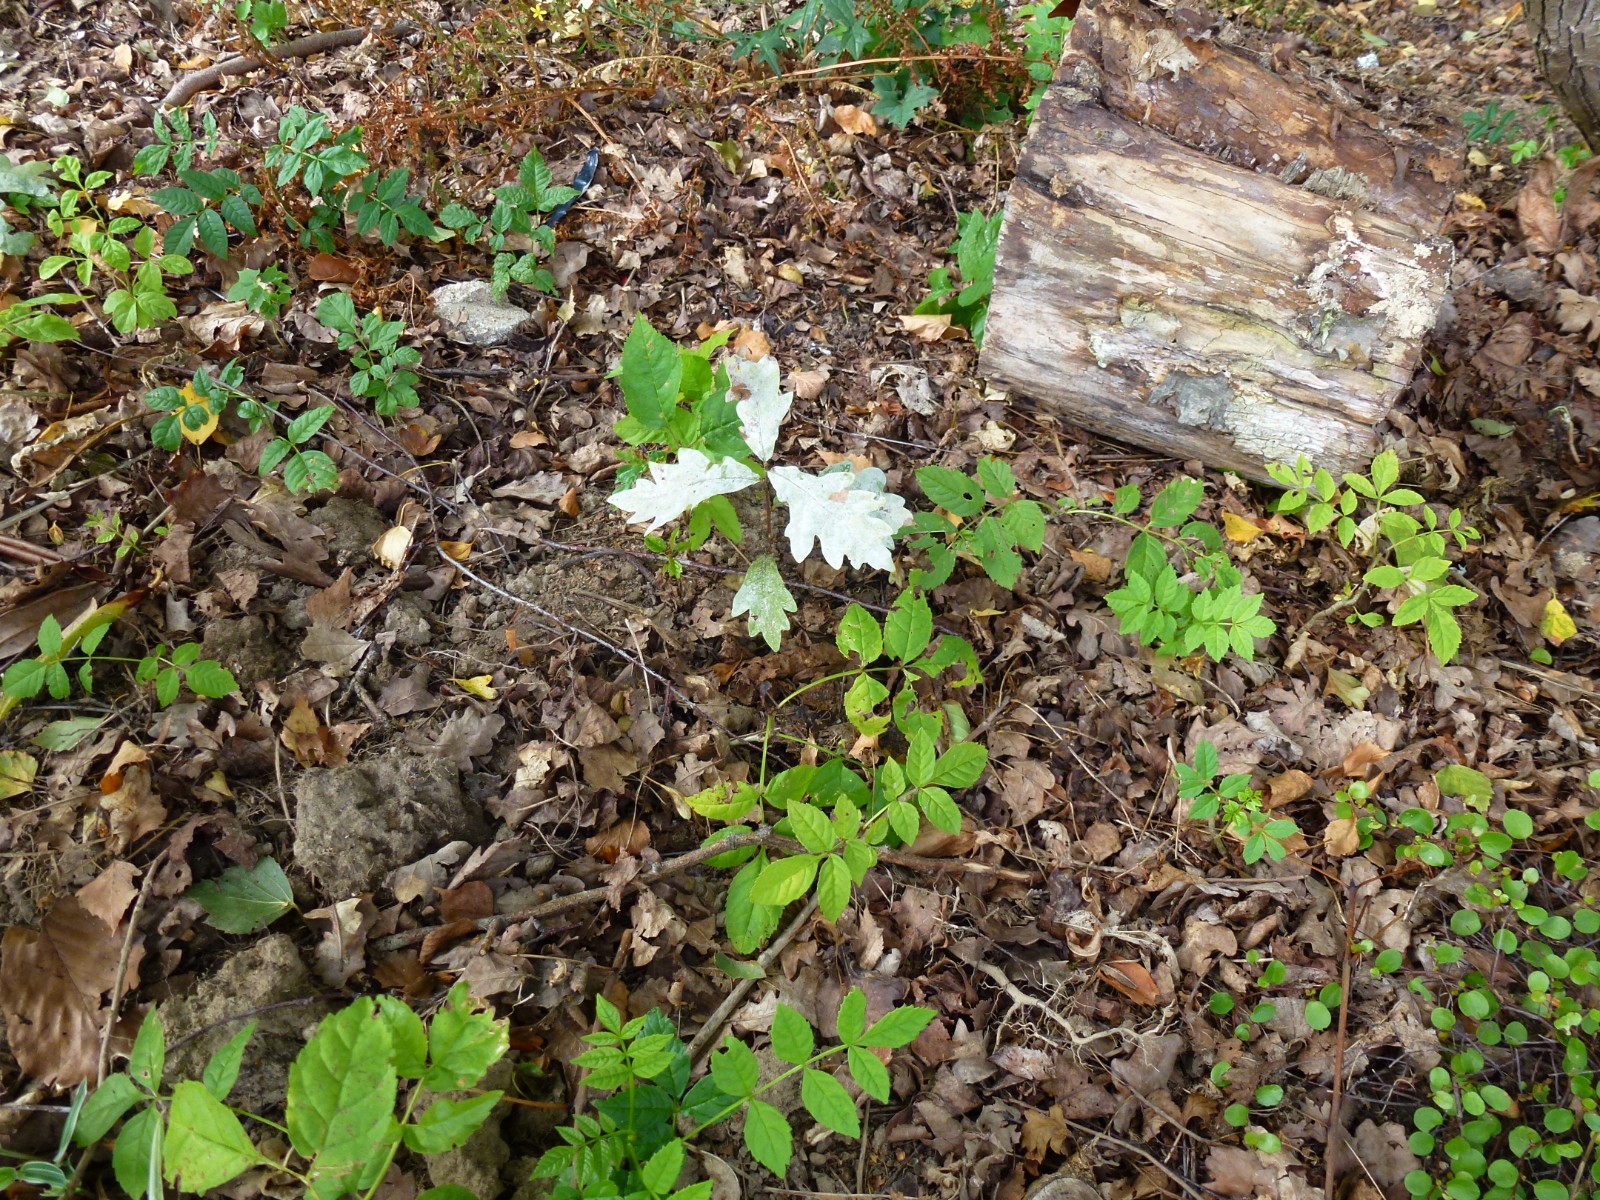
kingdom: Fungi
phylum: Ascomycota
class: Leotiomycetes
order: Helotiales
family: Erysiphaceae
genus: Erysiphe
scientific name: Erysiphe alphitoides
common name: ege-meldug
